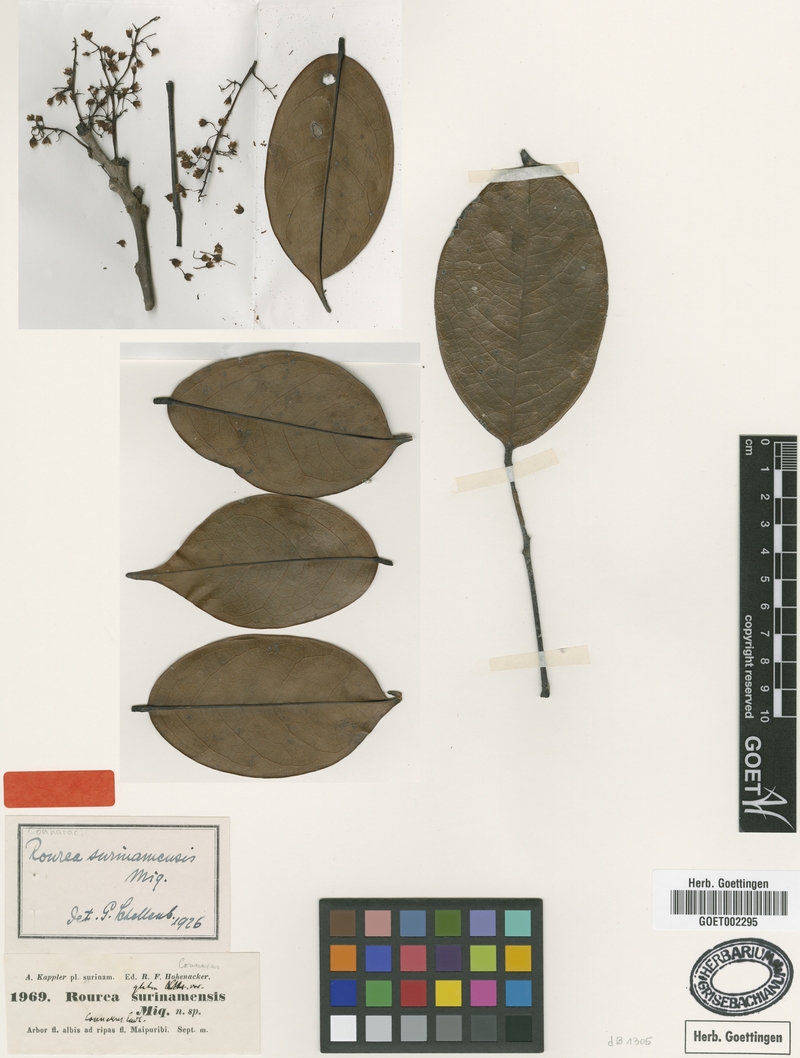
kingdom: Plantae
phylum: Tracheophyta
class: Magnoliopsida
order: Oxalidales
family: Connaraceae
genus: Rourea
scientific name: Rourea surinamensis
